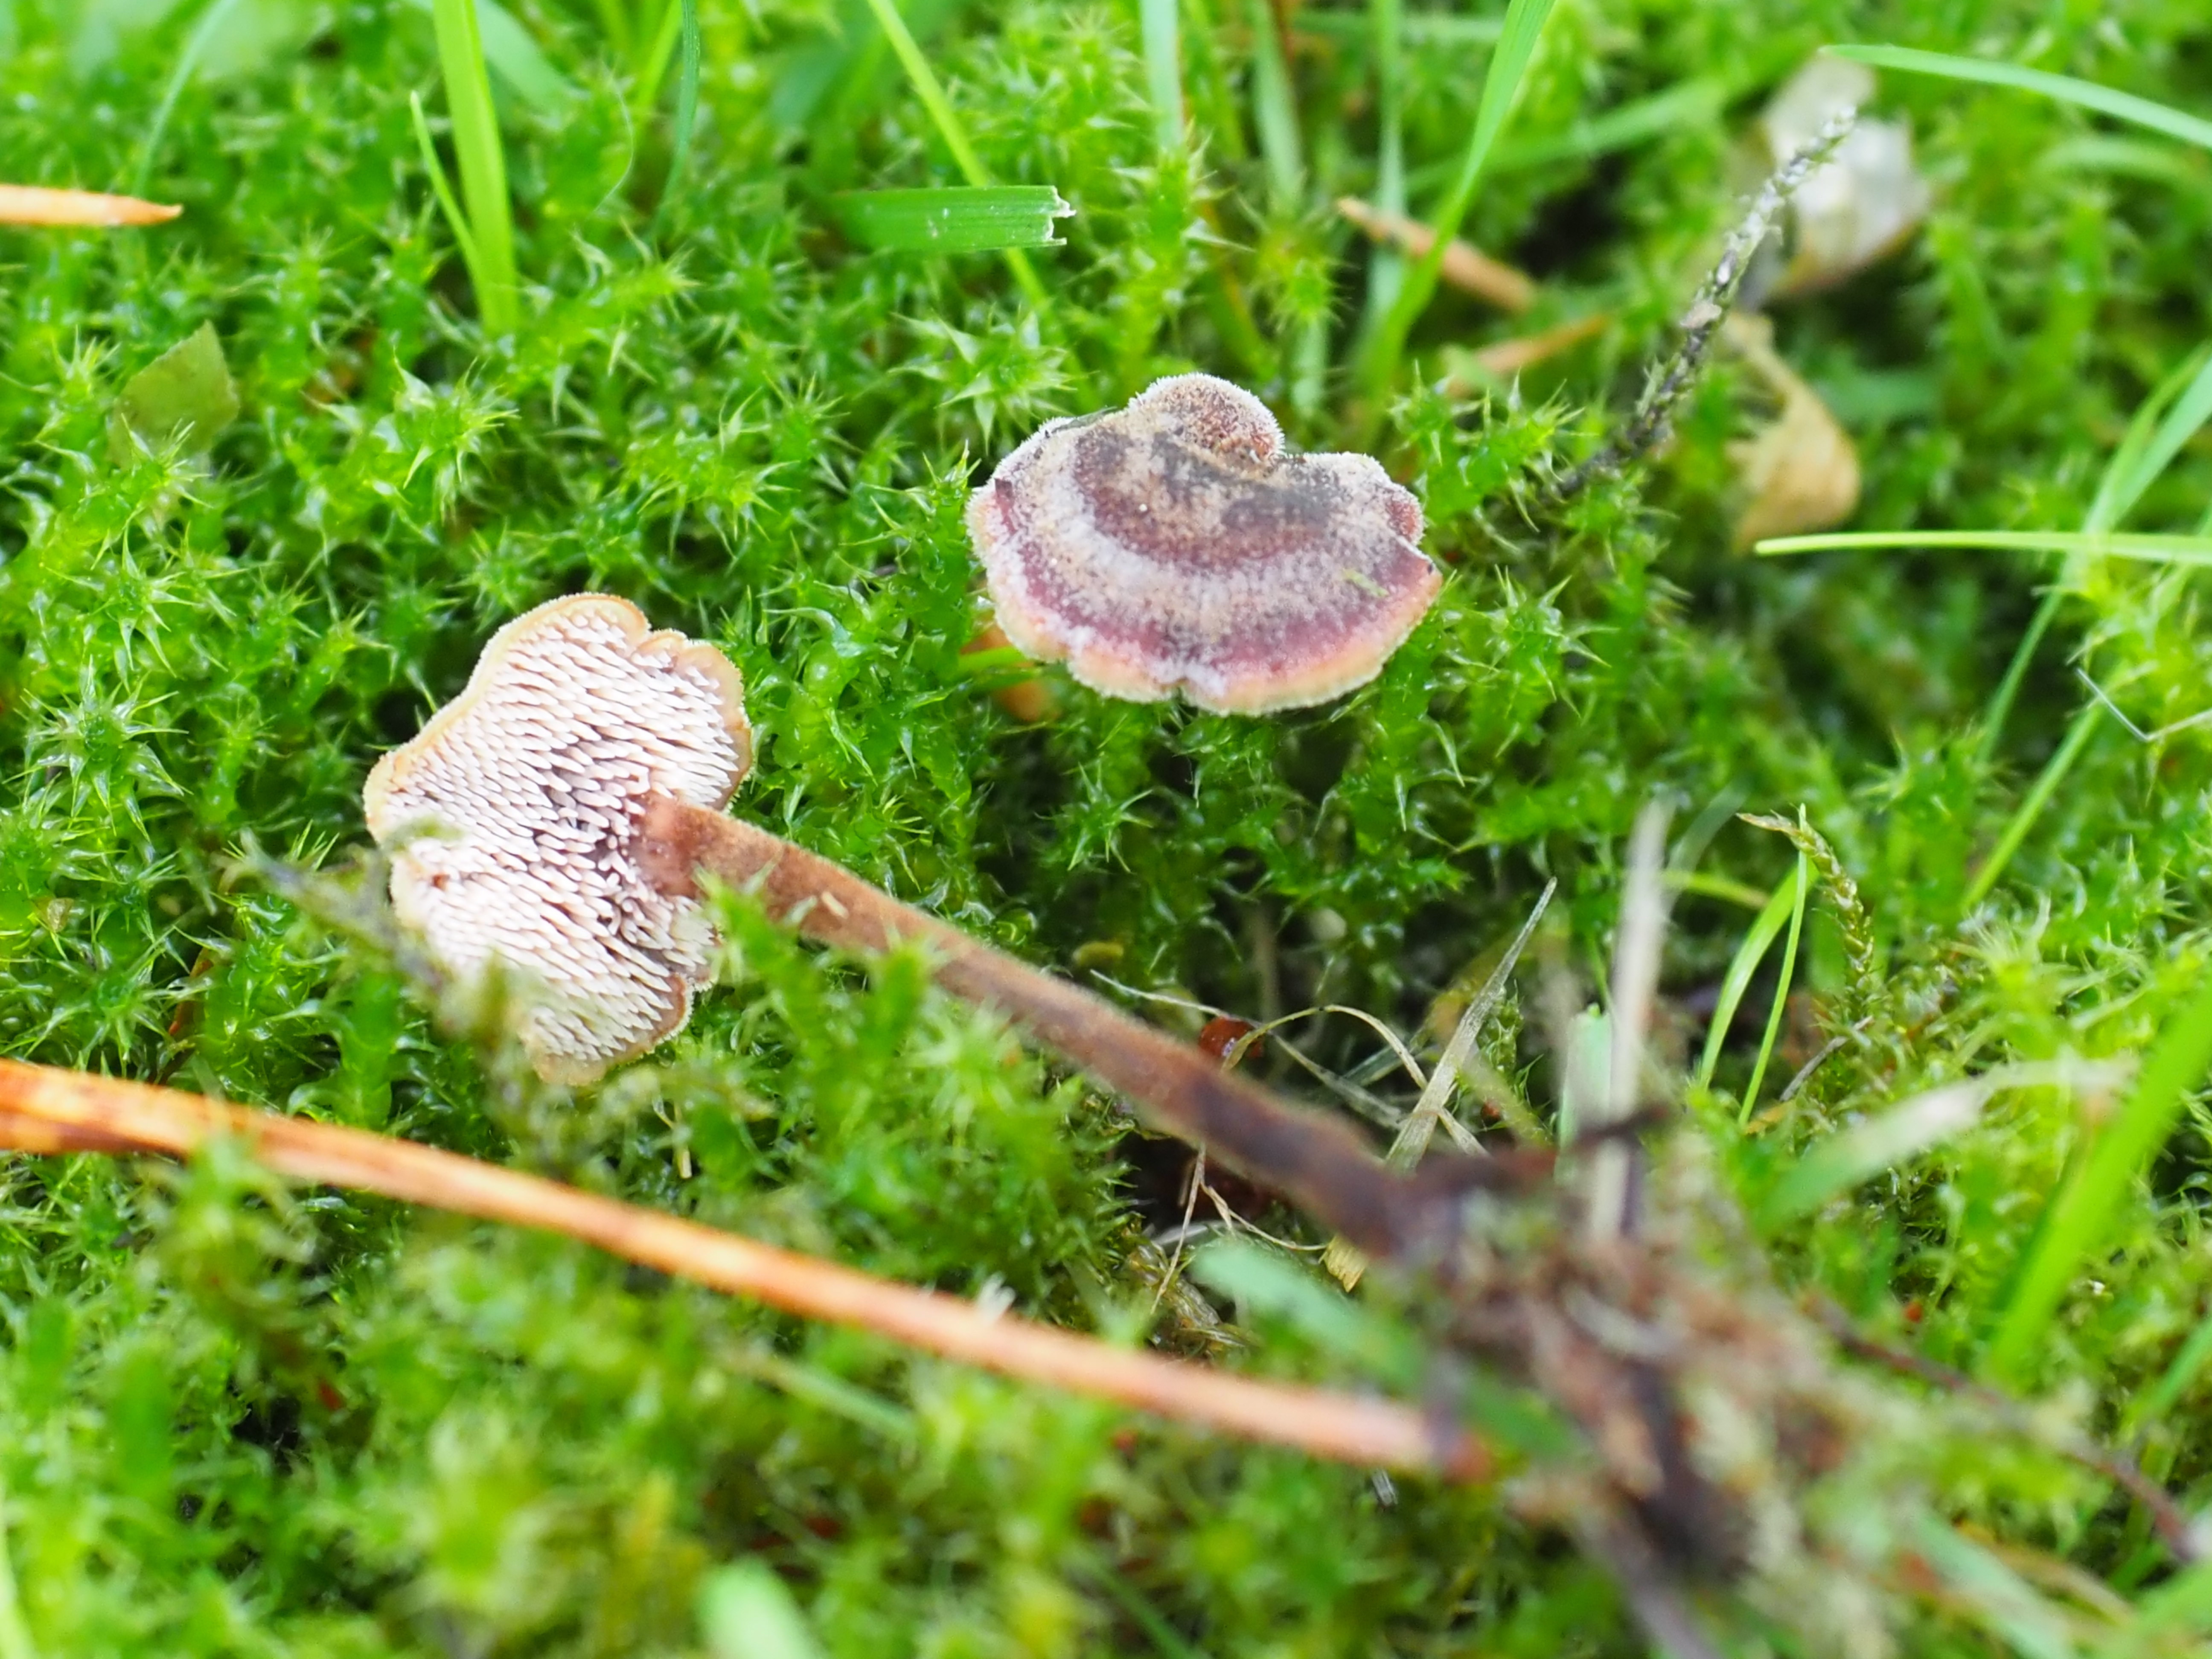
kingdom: Fungi
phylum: Basidiomycota
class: Agaricomycetes
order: Russulales
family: Auriscalpiaceae
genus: Auriscalpium
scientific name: Auriscalpium vulgare
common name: Earpick fungus
